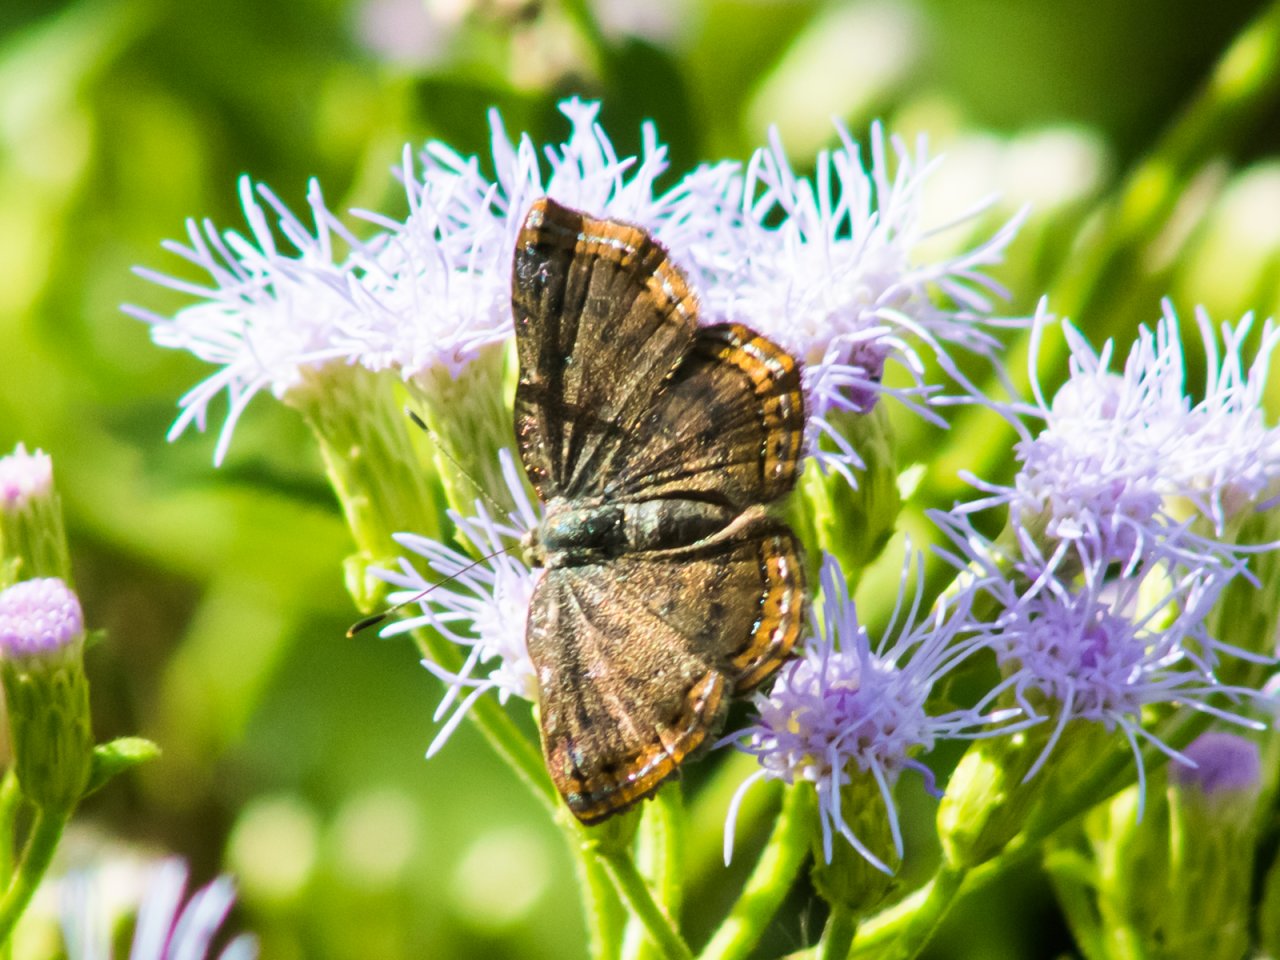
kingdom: Animalia
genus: Caria
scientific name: Caria ino
